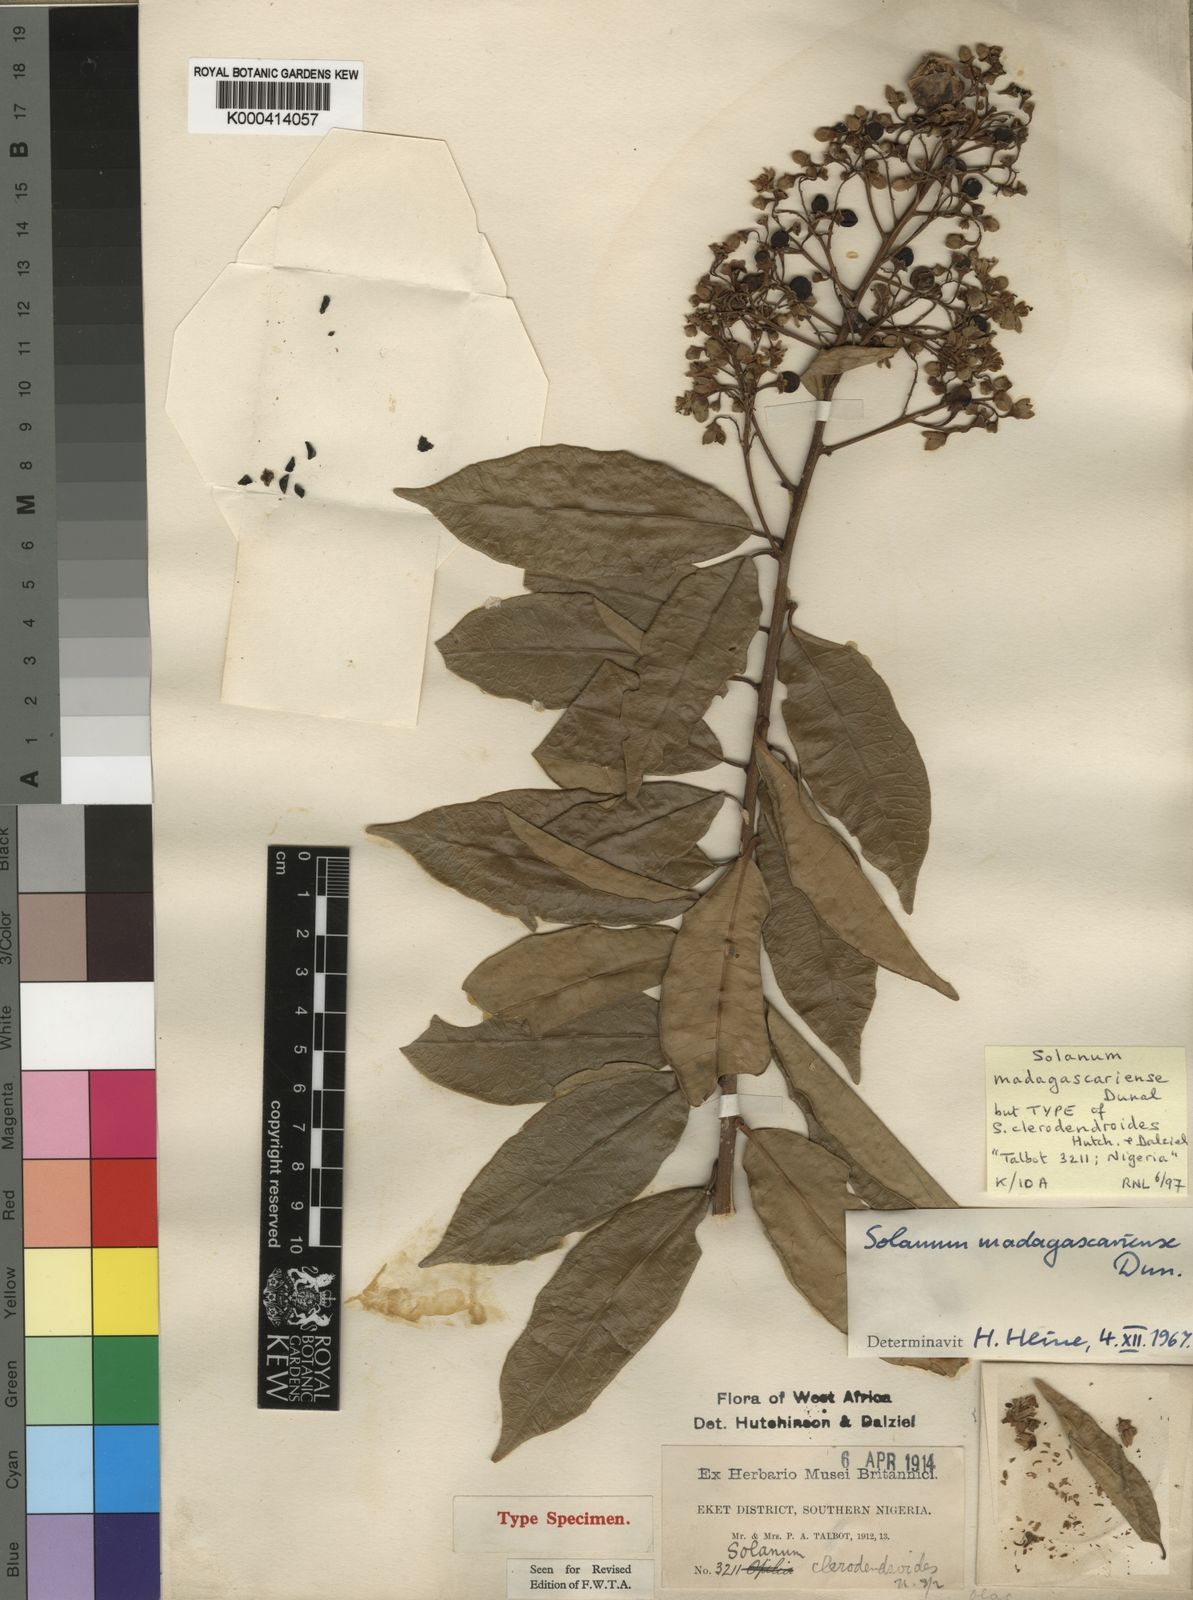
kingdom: Plantae
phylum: Tracheophyta
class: Magnoliopsida
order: Solanales
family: Solanaceae
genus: Solanum
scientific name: Solanum madagascariense
